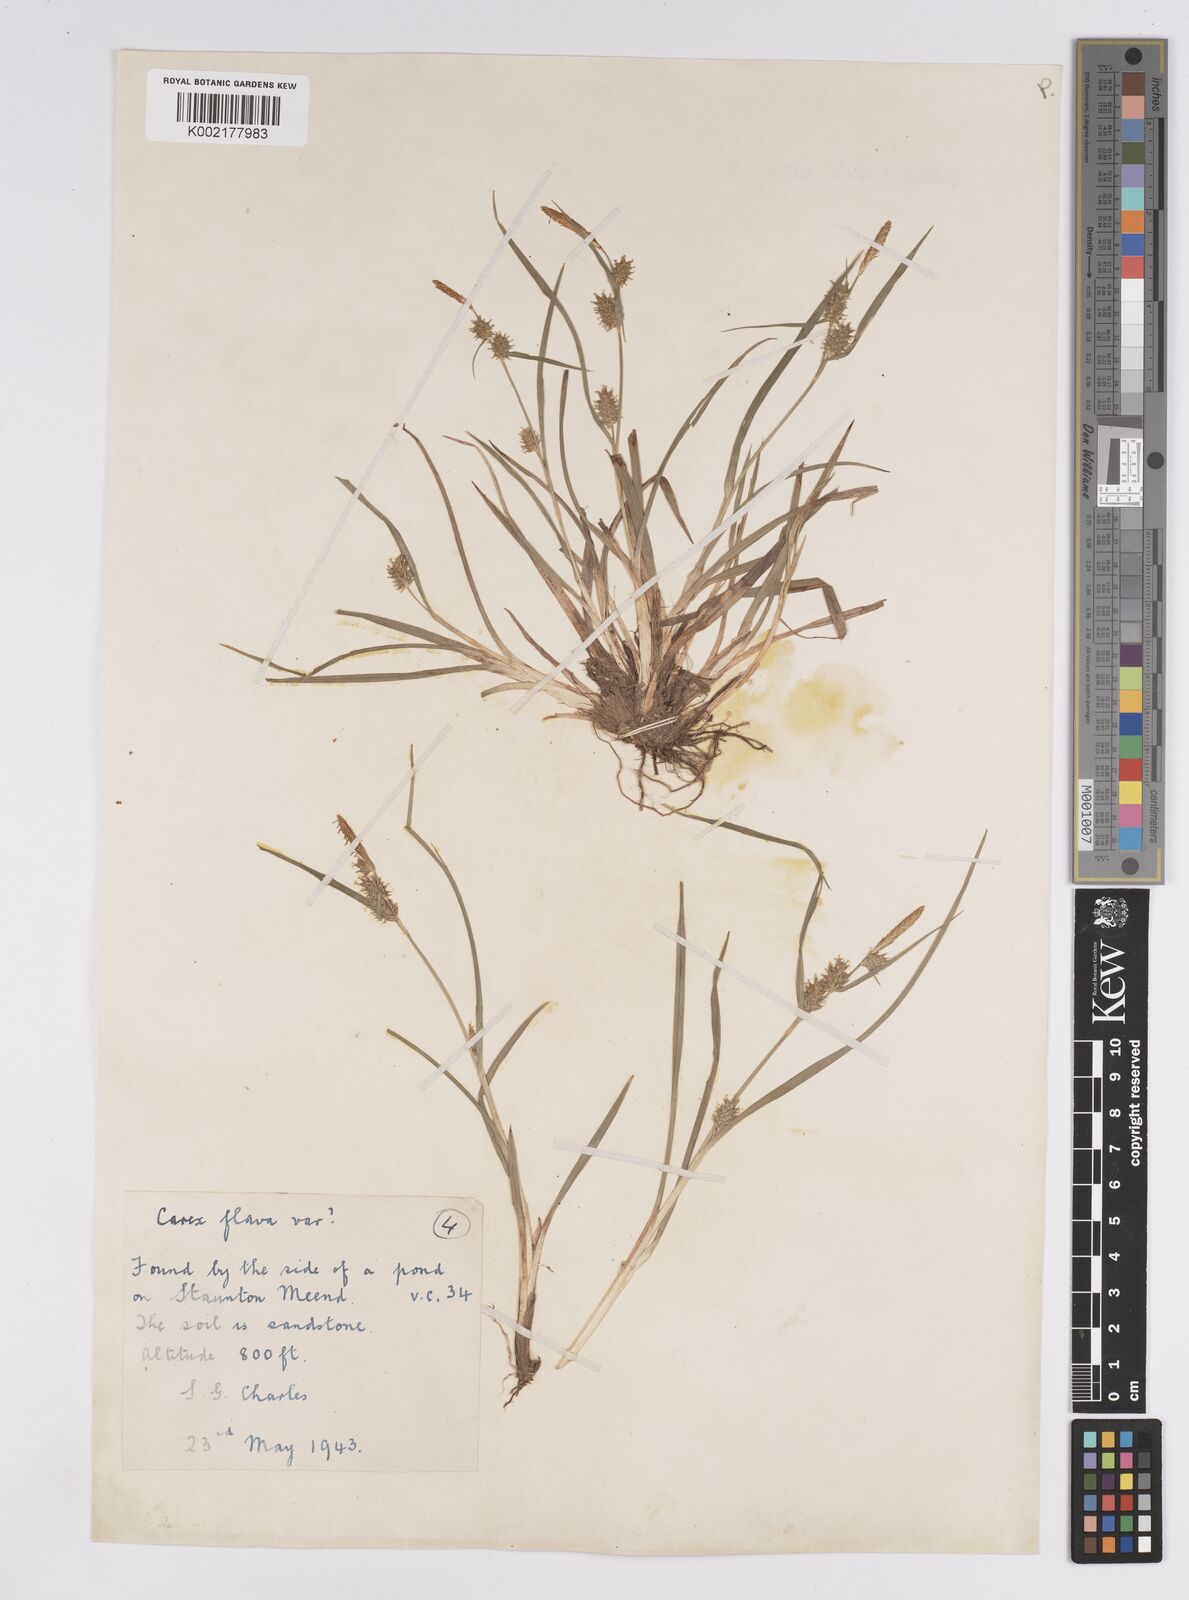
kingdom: Plantae
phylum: Tracheophyta
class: Liliopsida
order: Poales
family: Cyperaceae
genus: Carex
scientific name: Carex demissa
